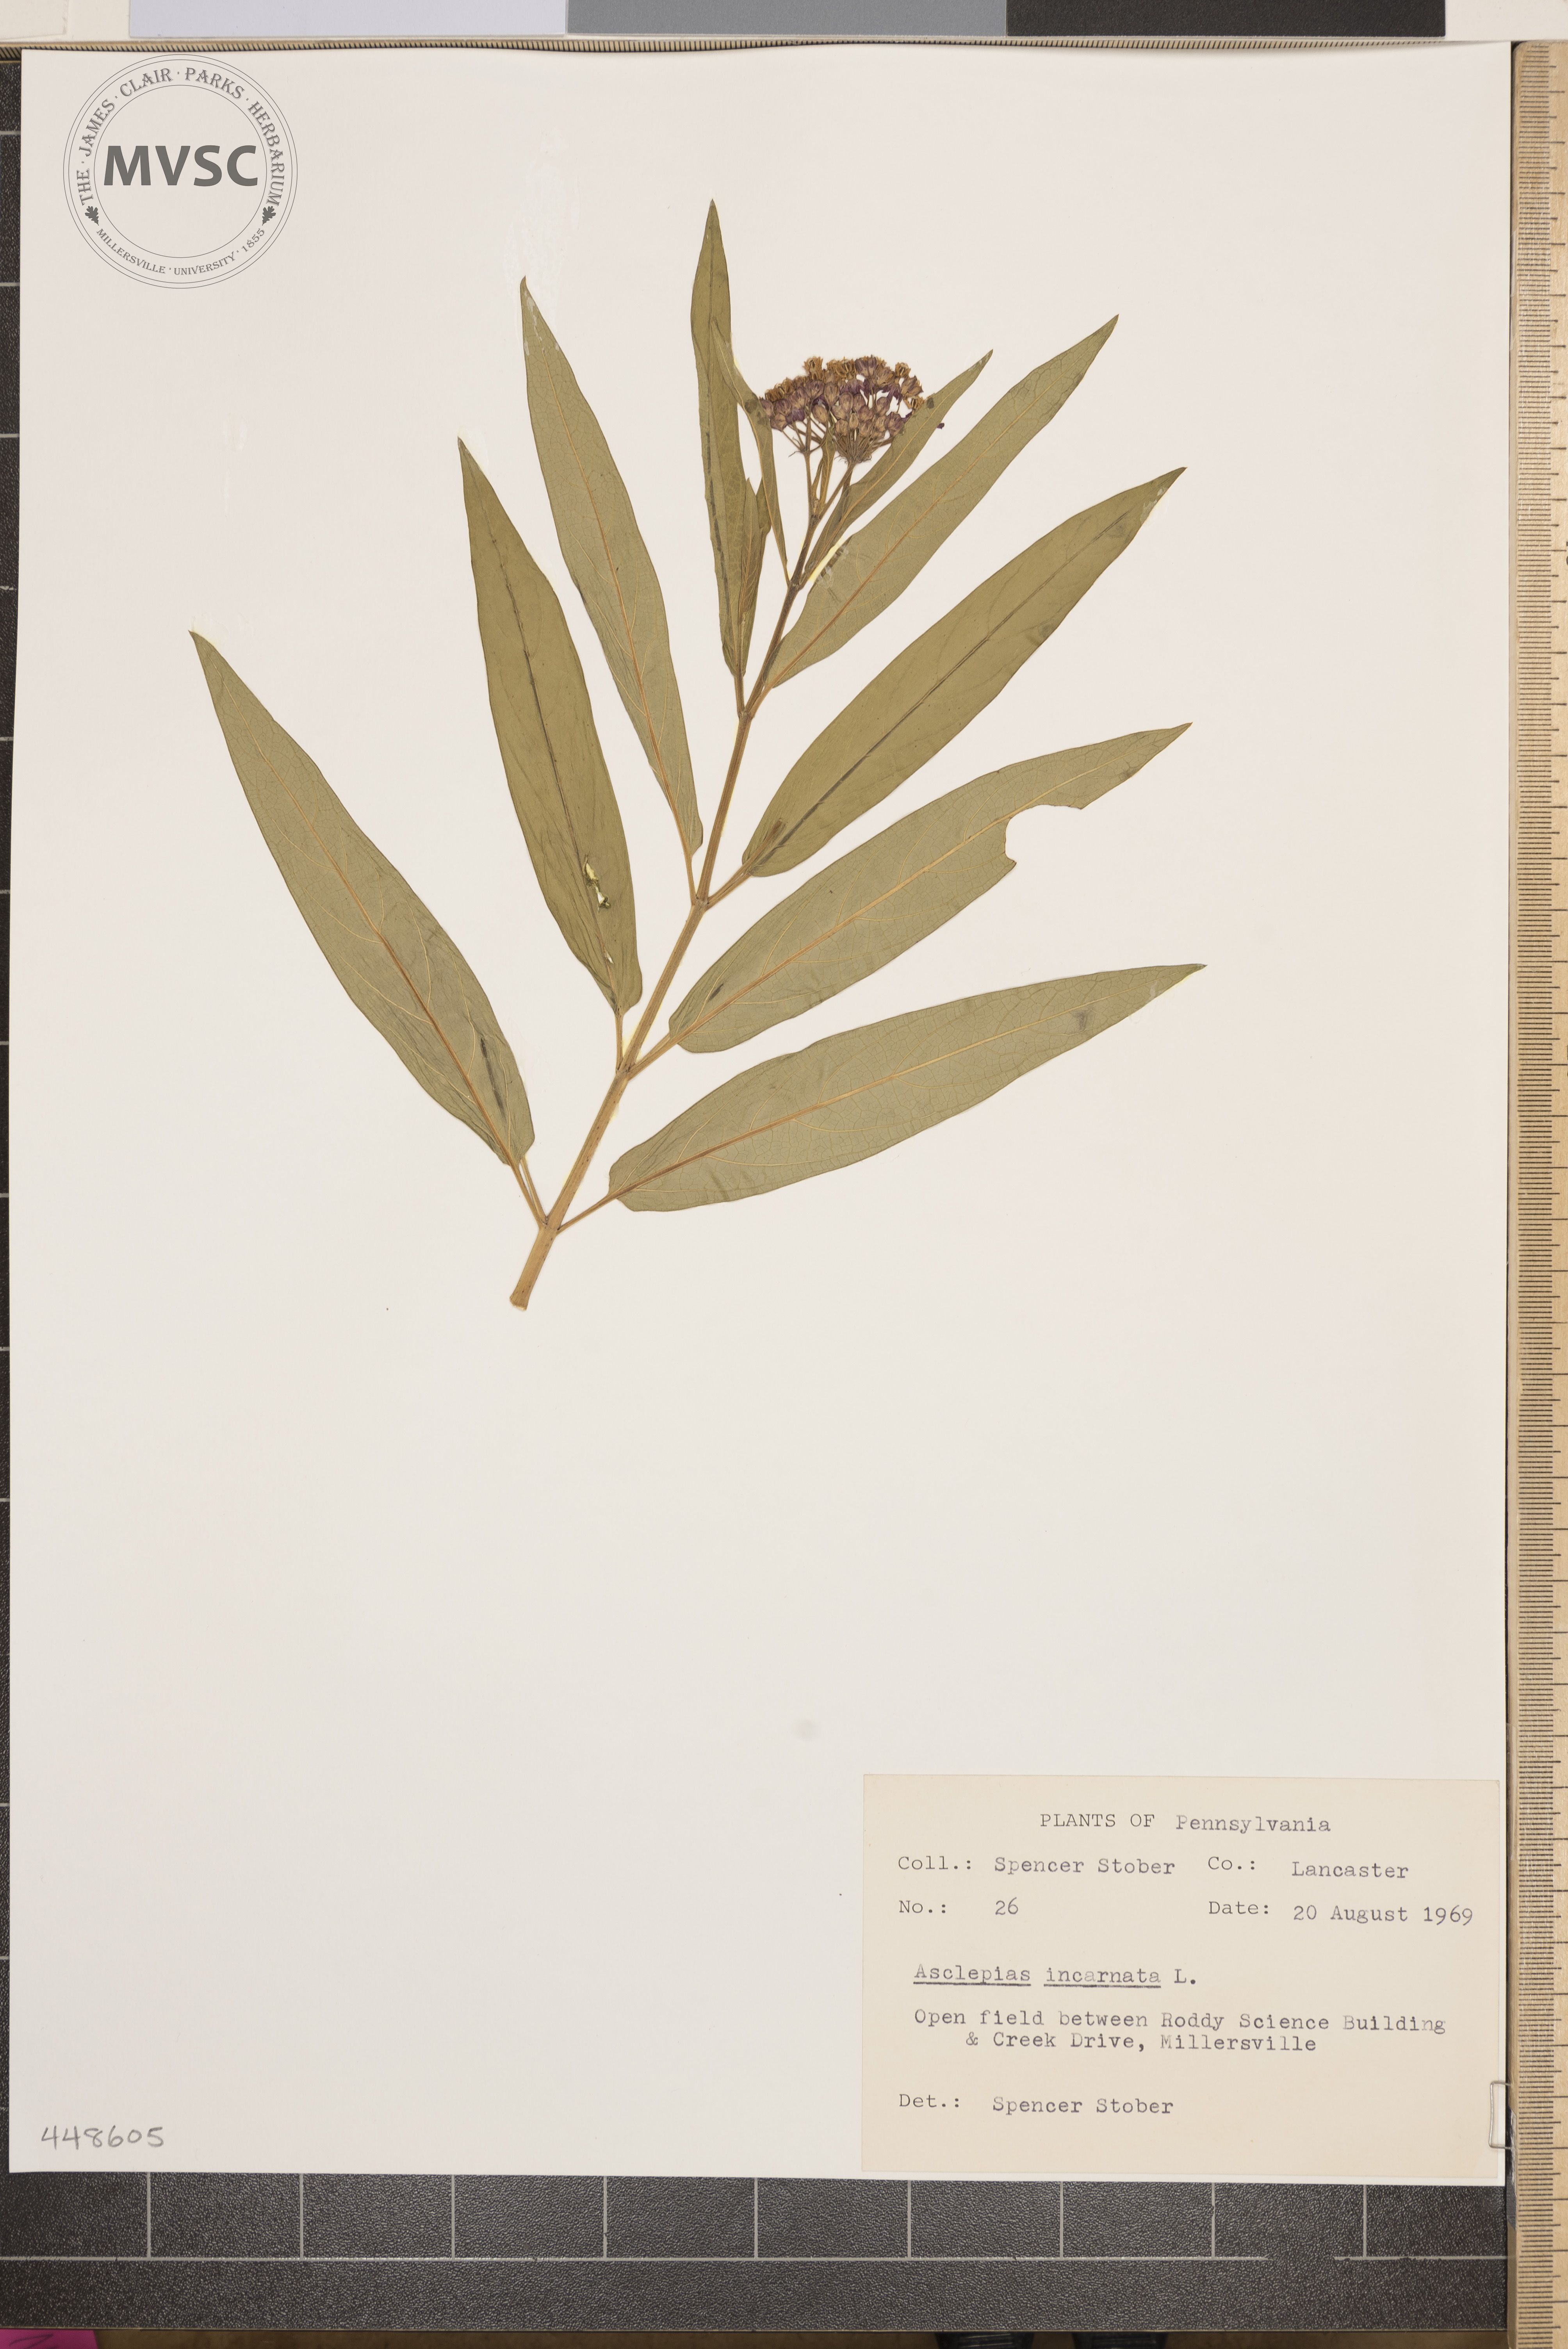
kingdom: Plantae
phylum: Tracheophyta
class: Magnoliopsida
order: Gentianales
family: Apocynaceae
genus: Asclepias
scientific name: Asclepias incarnata
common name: Swamp milkweed
